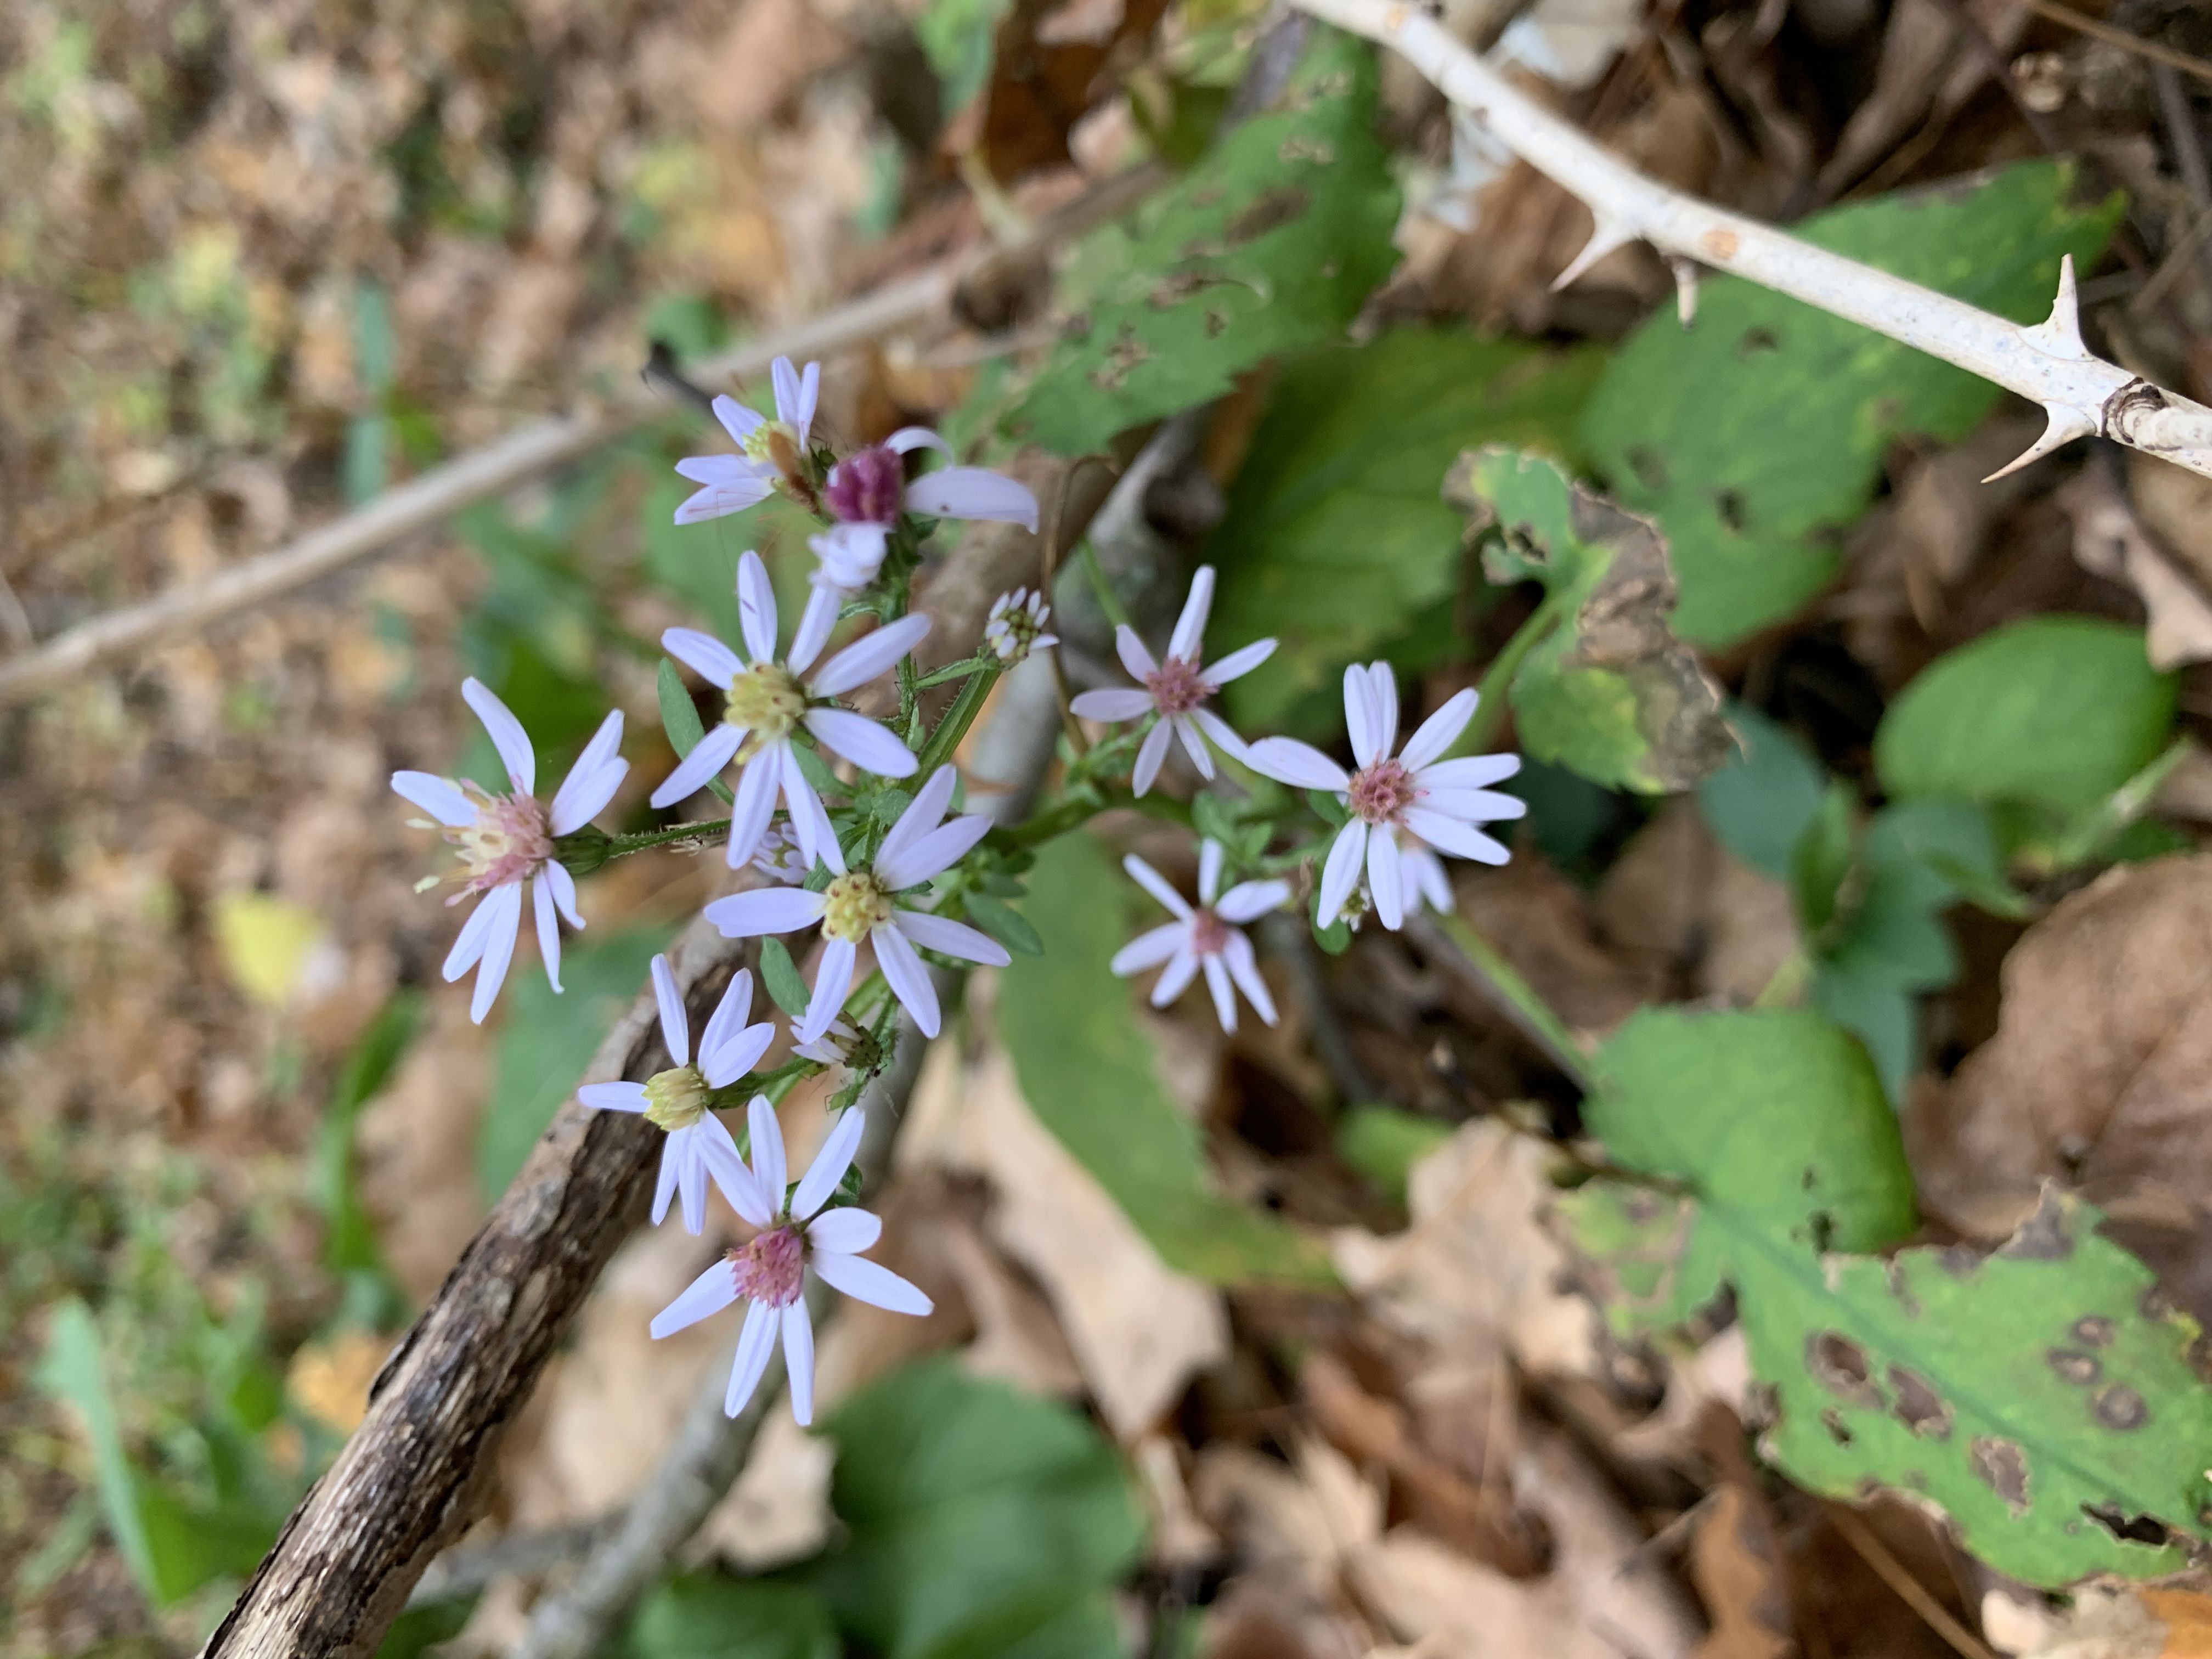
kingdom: Plantae
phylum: Tracheophyta
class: Magnoliopsida
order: Asterales
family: Asteraceae
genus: Symphyotrichum
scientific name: Symphyotrichum cordifolium
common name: Calico Aster
